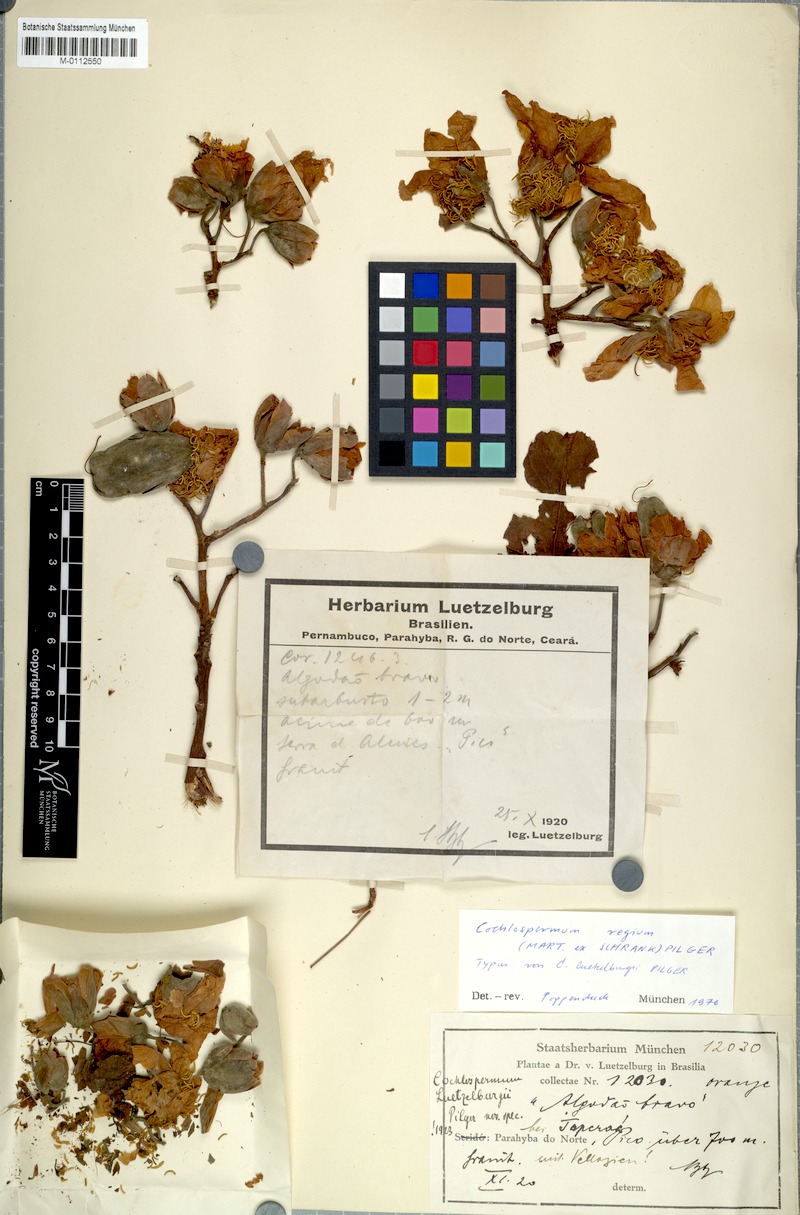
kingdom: Plantae
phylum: Tracheophyta
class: Magnoliopsida
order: Malvales
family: Cochlospermaceae
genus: Cochlospermum
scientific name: Cochlospermum vitifolium
